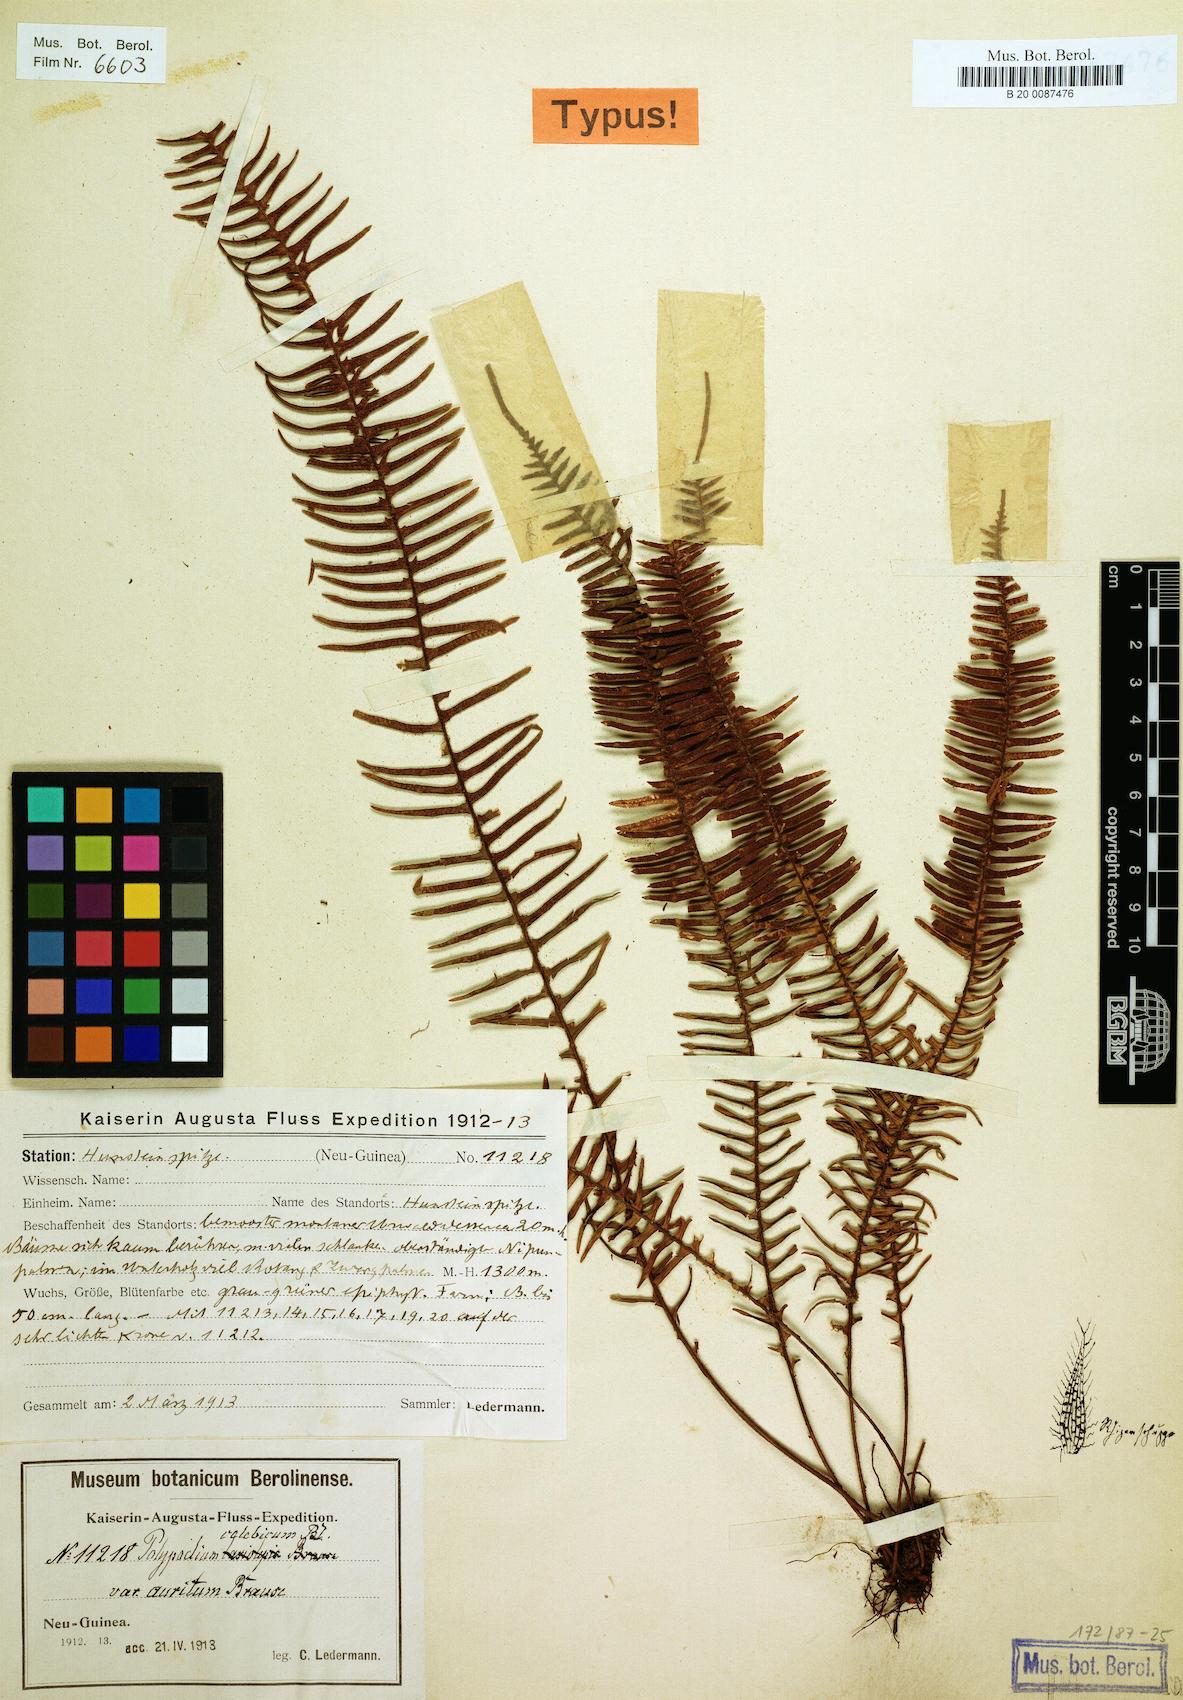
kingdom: Plantae
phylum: Tracheophyta
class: Polypodiopsida
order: Polypodiales
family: Polypodiaceae
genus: Prosaptia
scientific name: Prosaptia celebica
